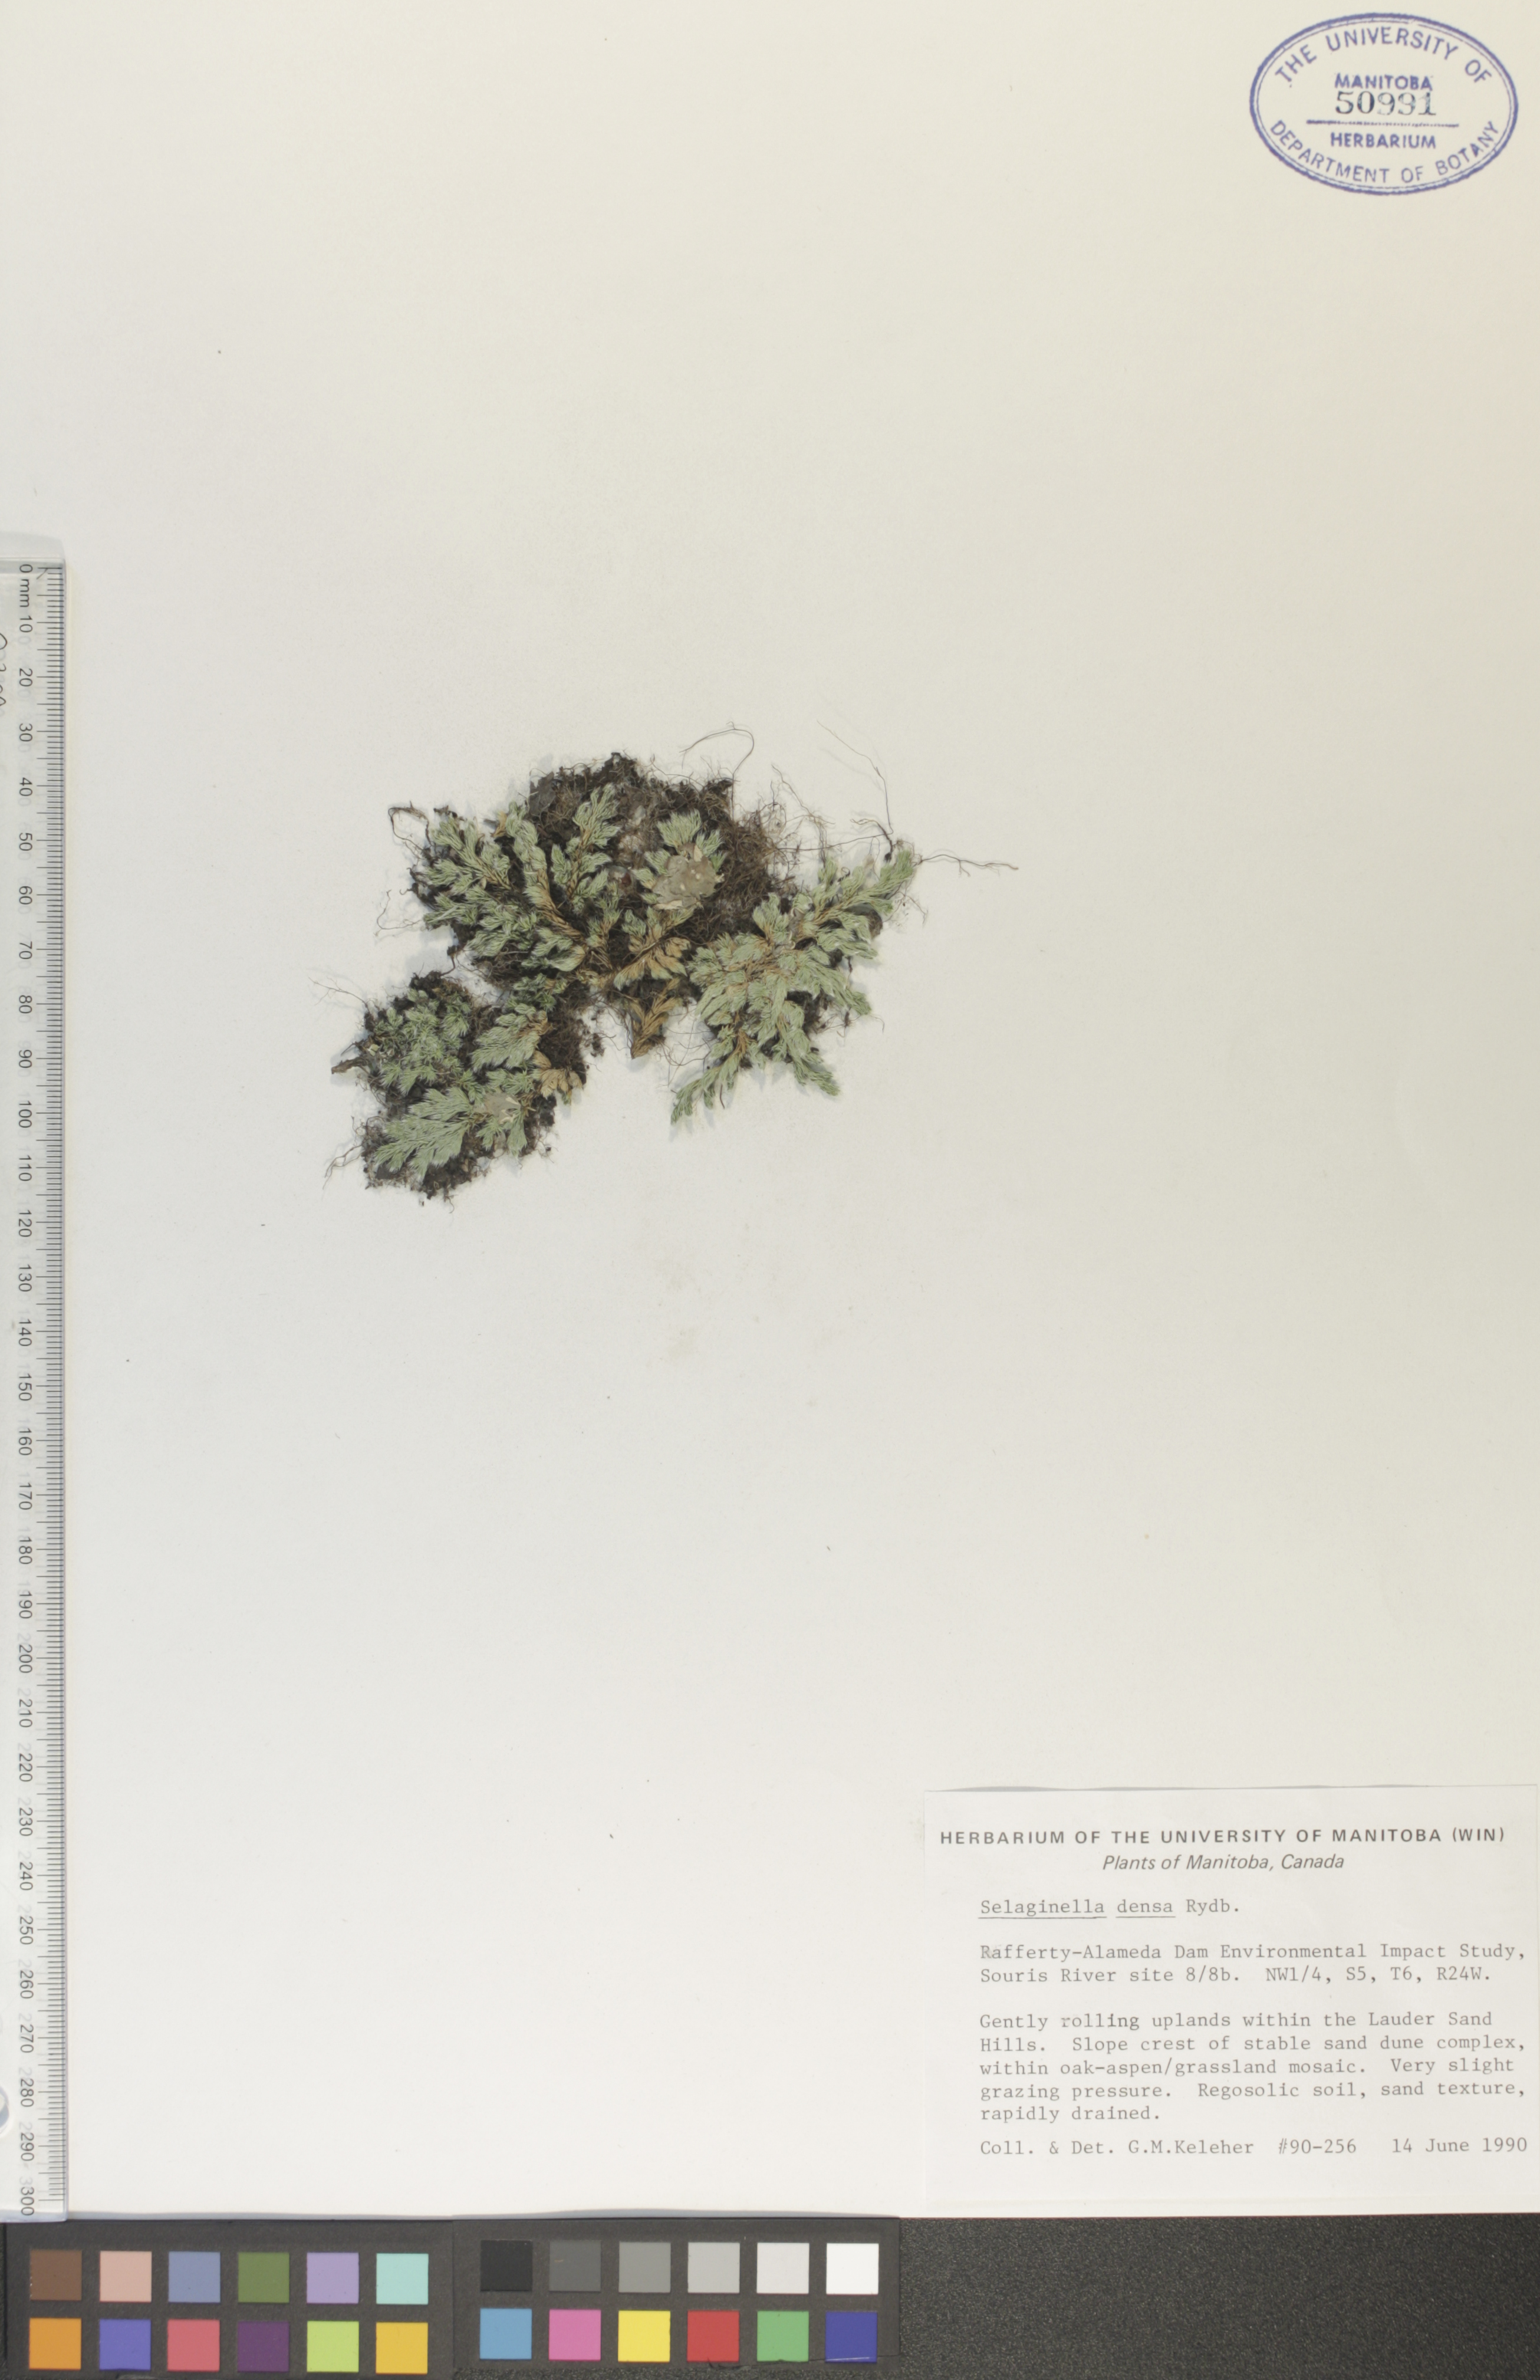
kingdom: Plantae
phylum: Tracheophyta
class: Lycopodiopsida
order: Selaginellales
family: Selaginellaceae
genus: Selaginella
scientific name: Selaginella densa
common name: Mountain spike-moss
